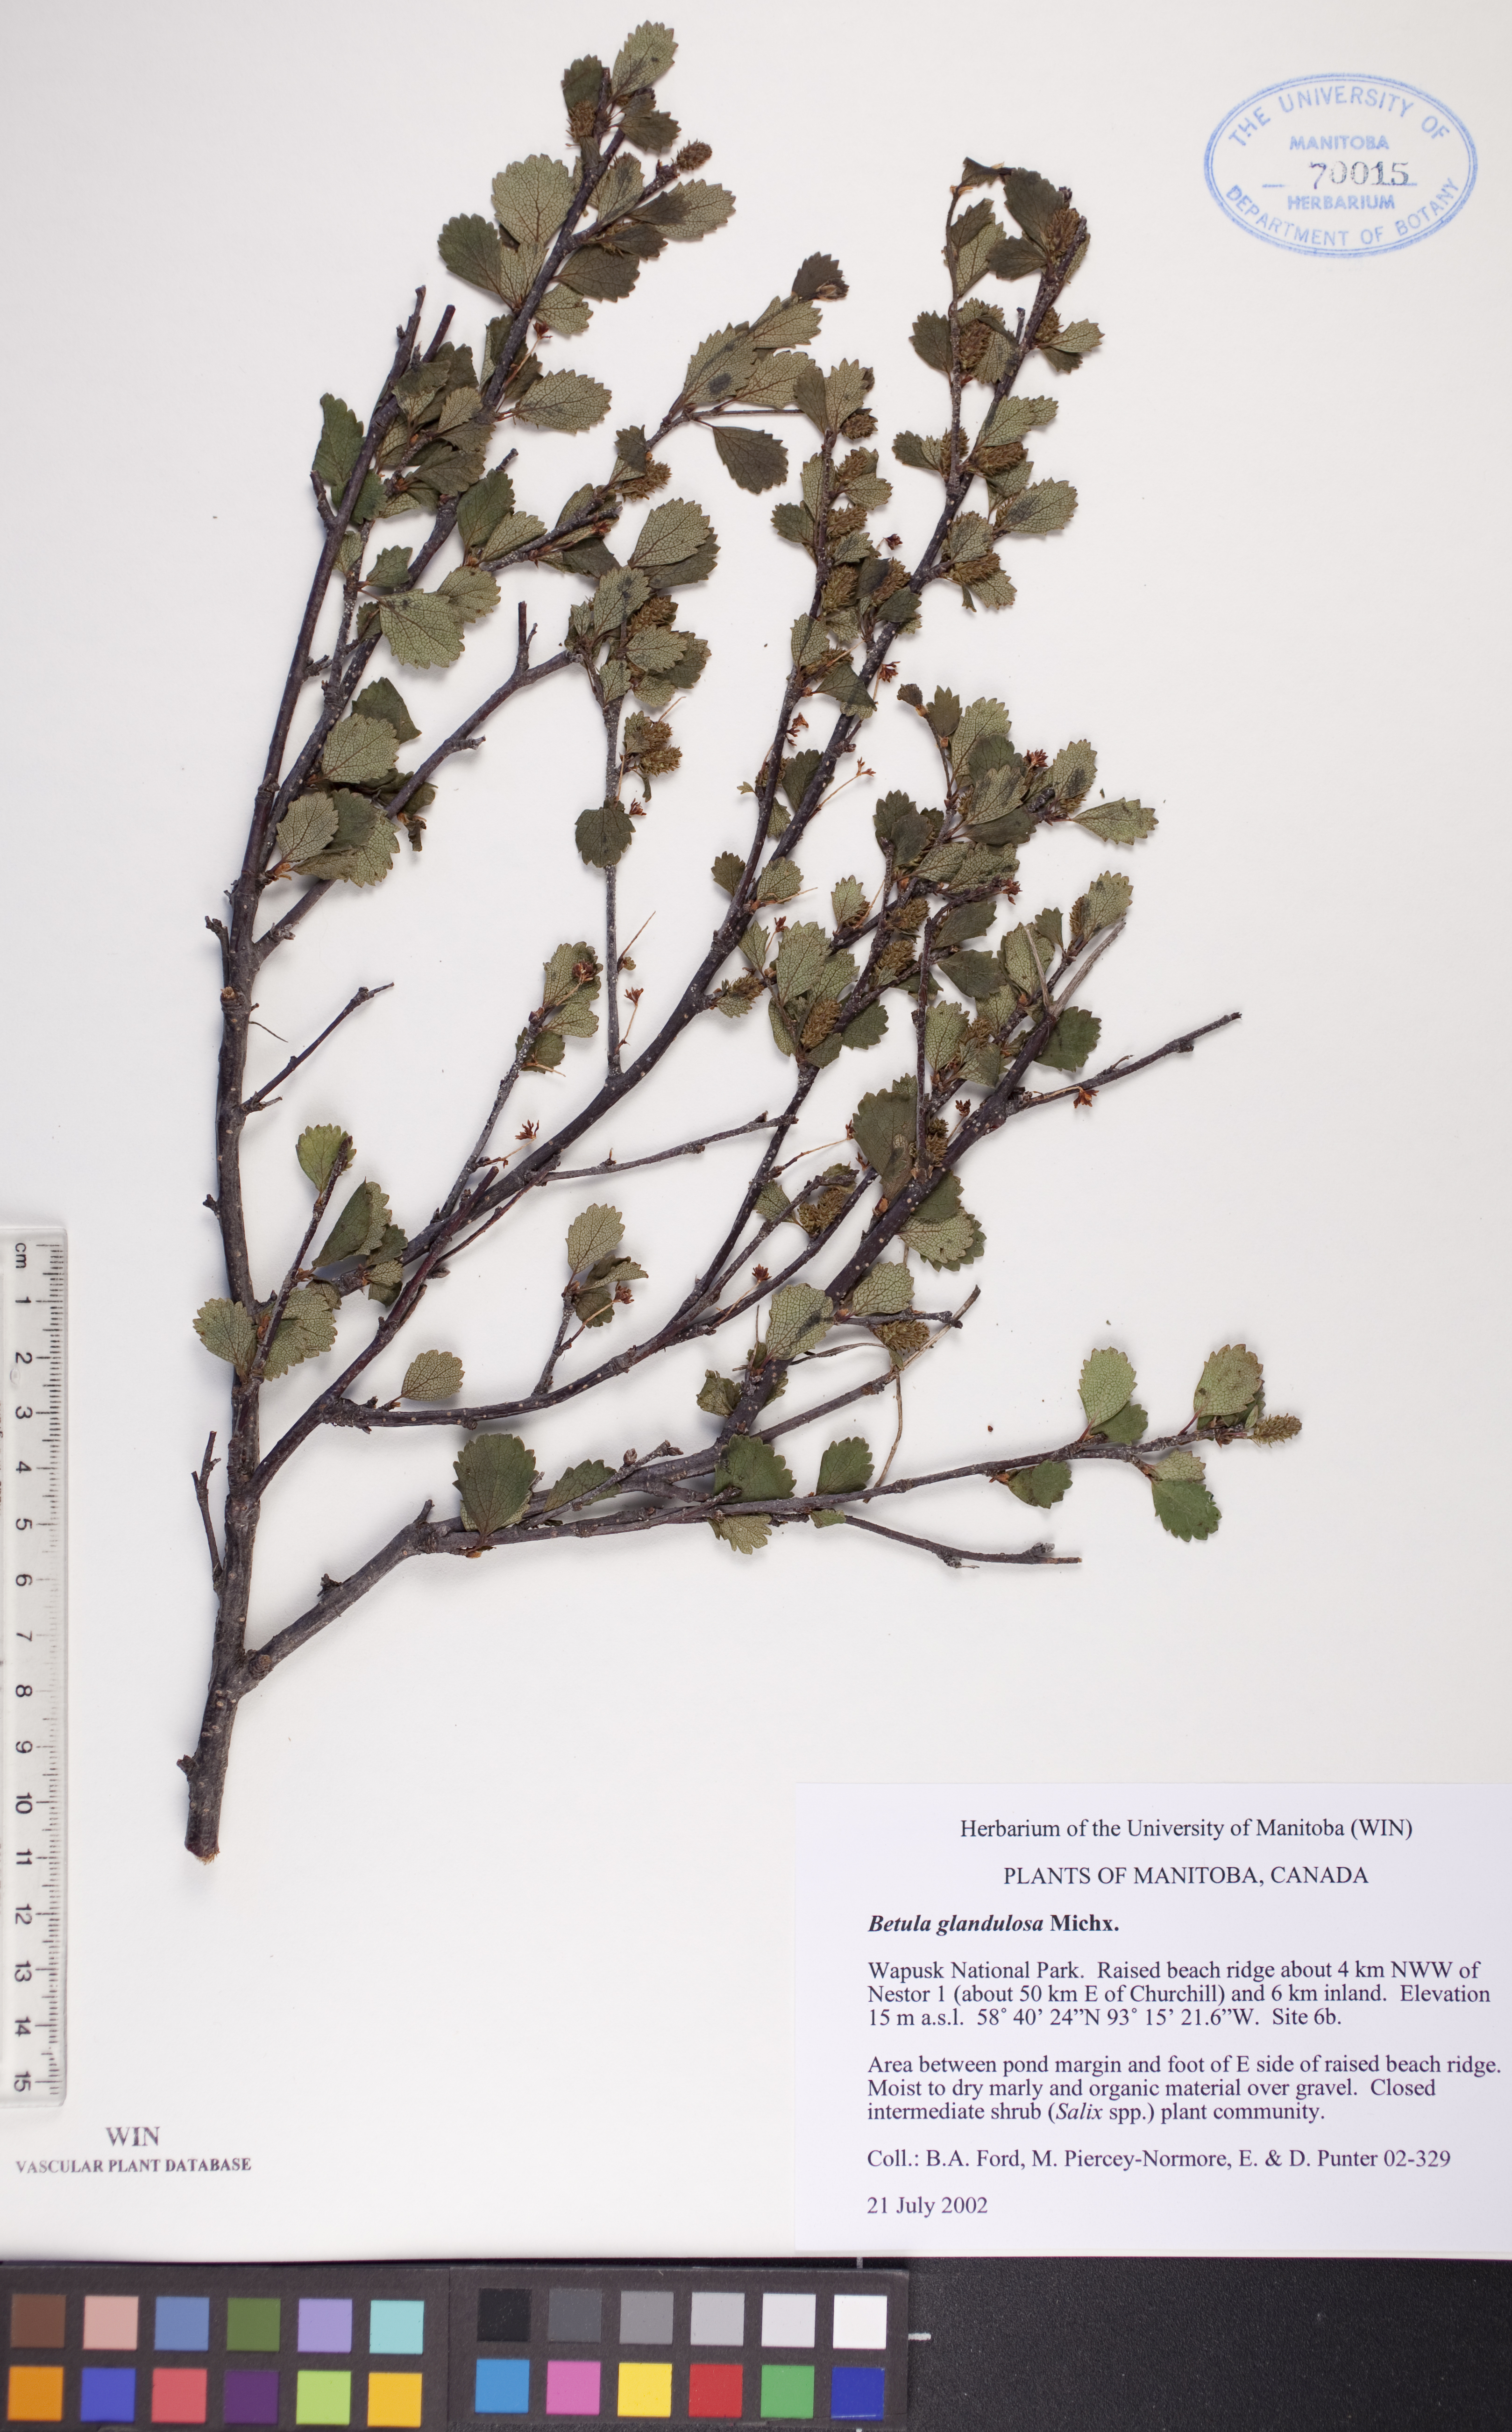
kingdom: Plantae
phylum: Tracheophyta
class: Magnoliopsida
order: Fagales
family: Betulaceae
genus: Betula
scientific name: Betula glandulosa
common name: Dwarf birch
